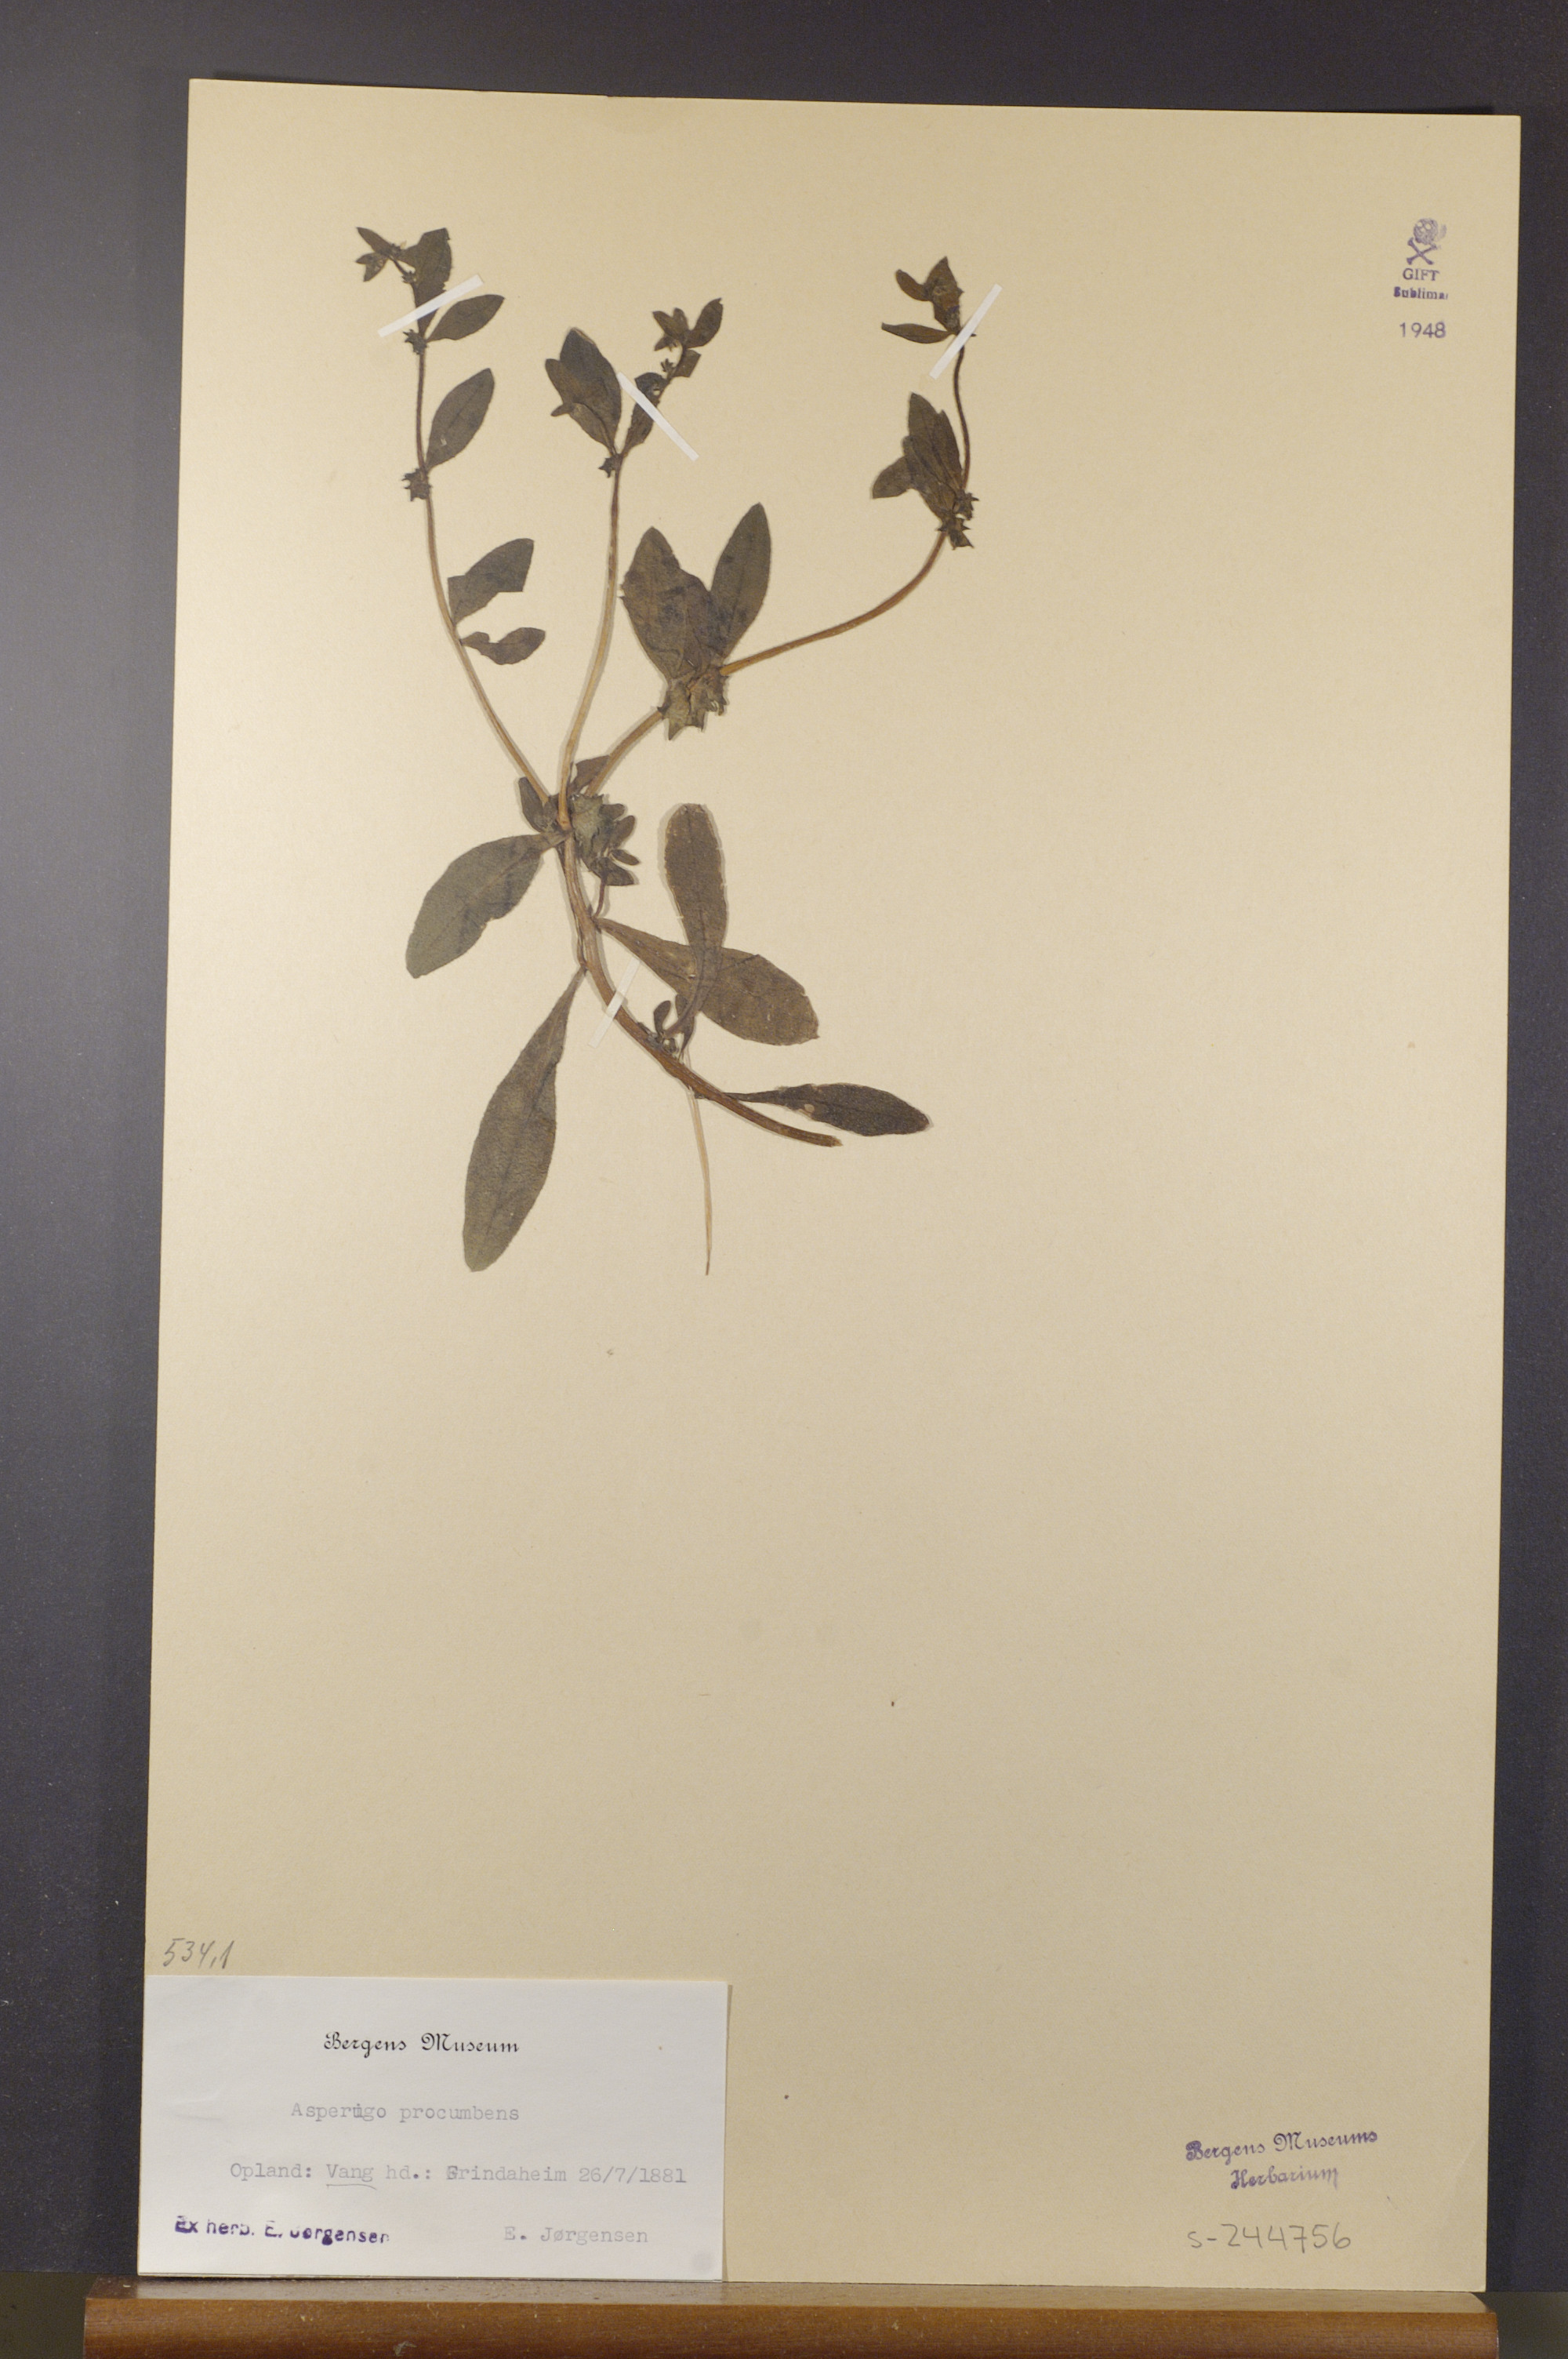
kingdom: Plantae
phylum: Tracheophyta
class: Magnoliopsida
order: Boraginales
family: Boraginaceae
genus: Asperugo
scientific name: Asperugo procumbens
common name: Madwort
